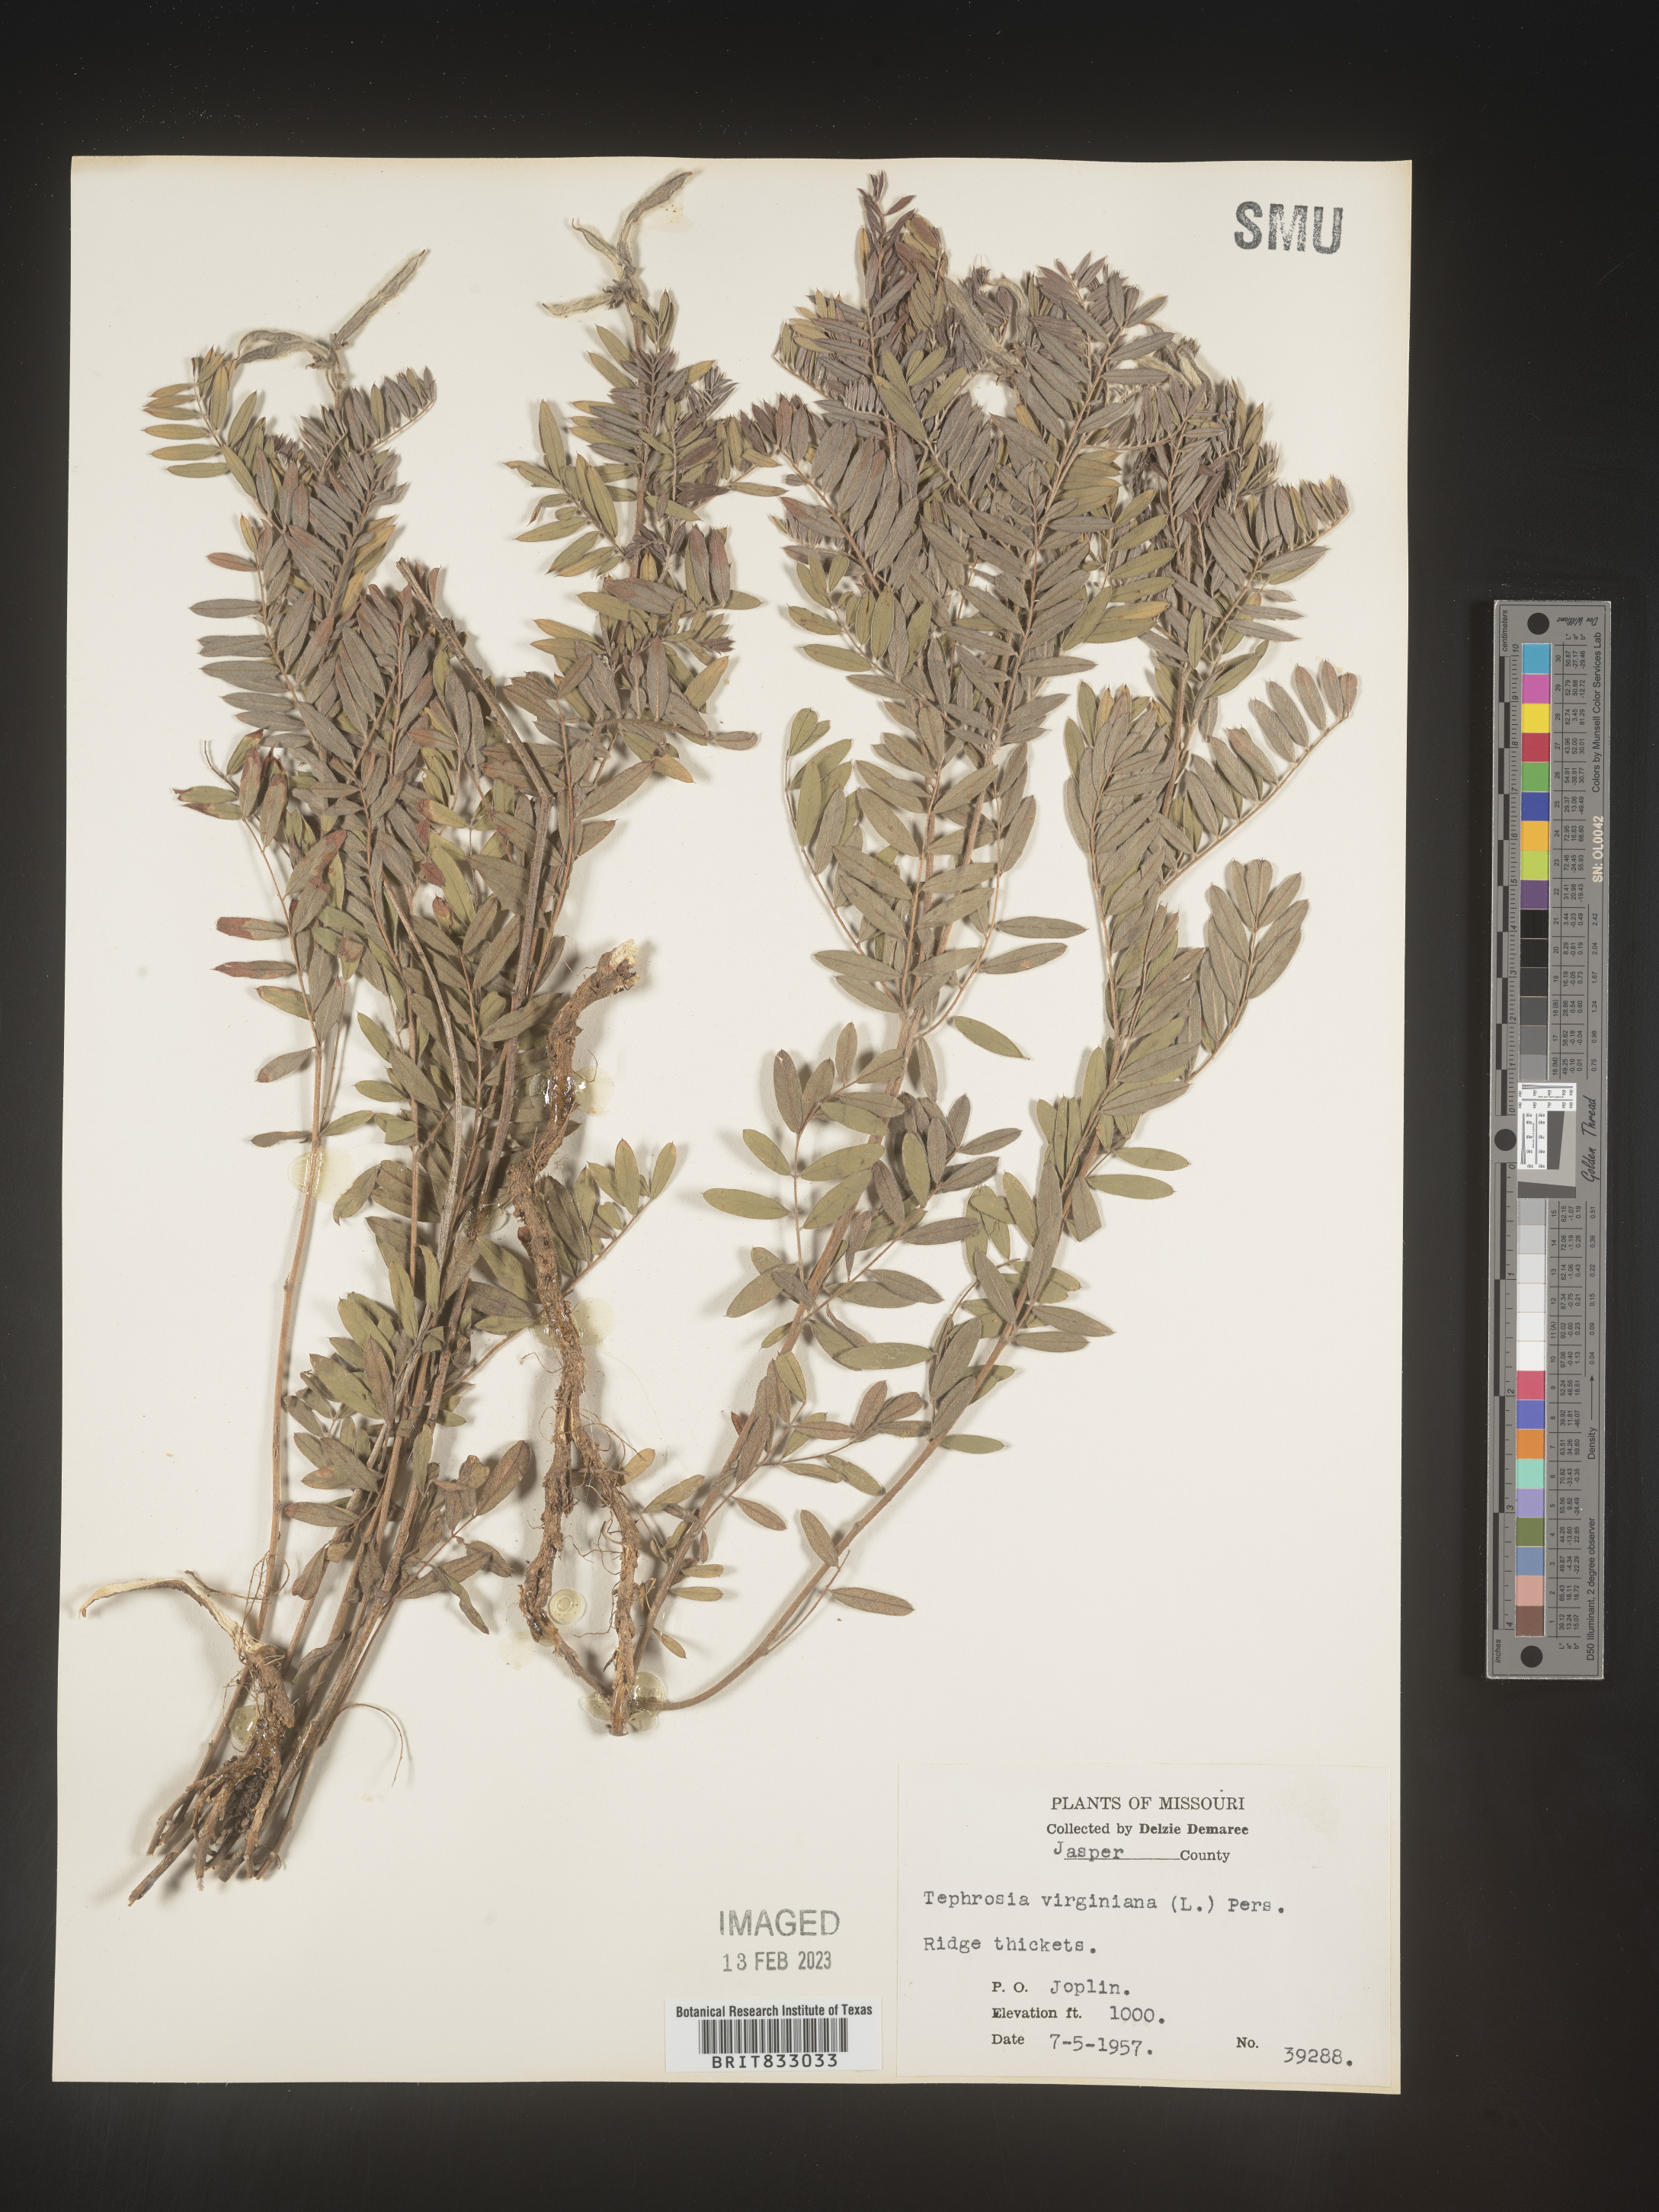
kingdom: Plantae
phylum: Tracheophyta
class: Magnoliopsida
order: Fabales
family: Fabaceae
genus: Tephrosia
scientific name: Tephrosia virginiana
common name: Rabbit-pea
